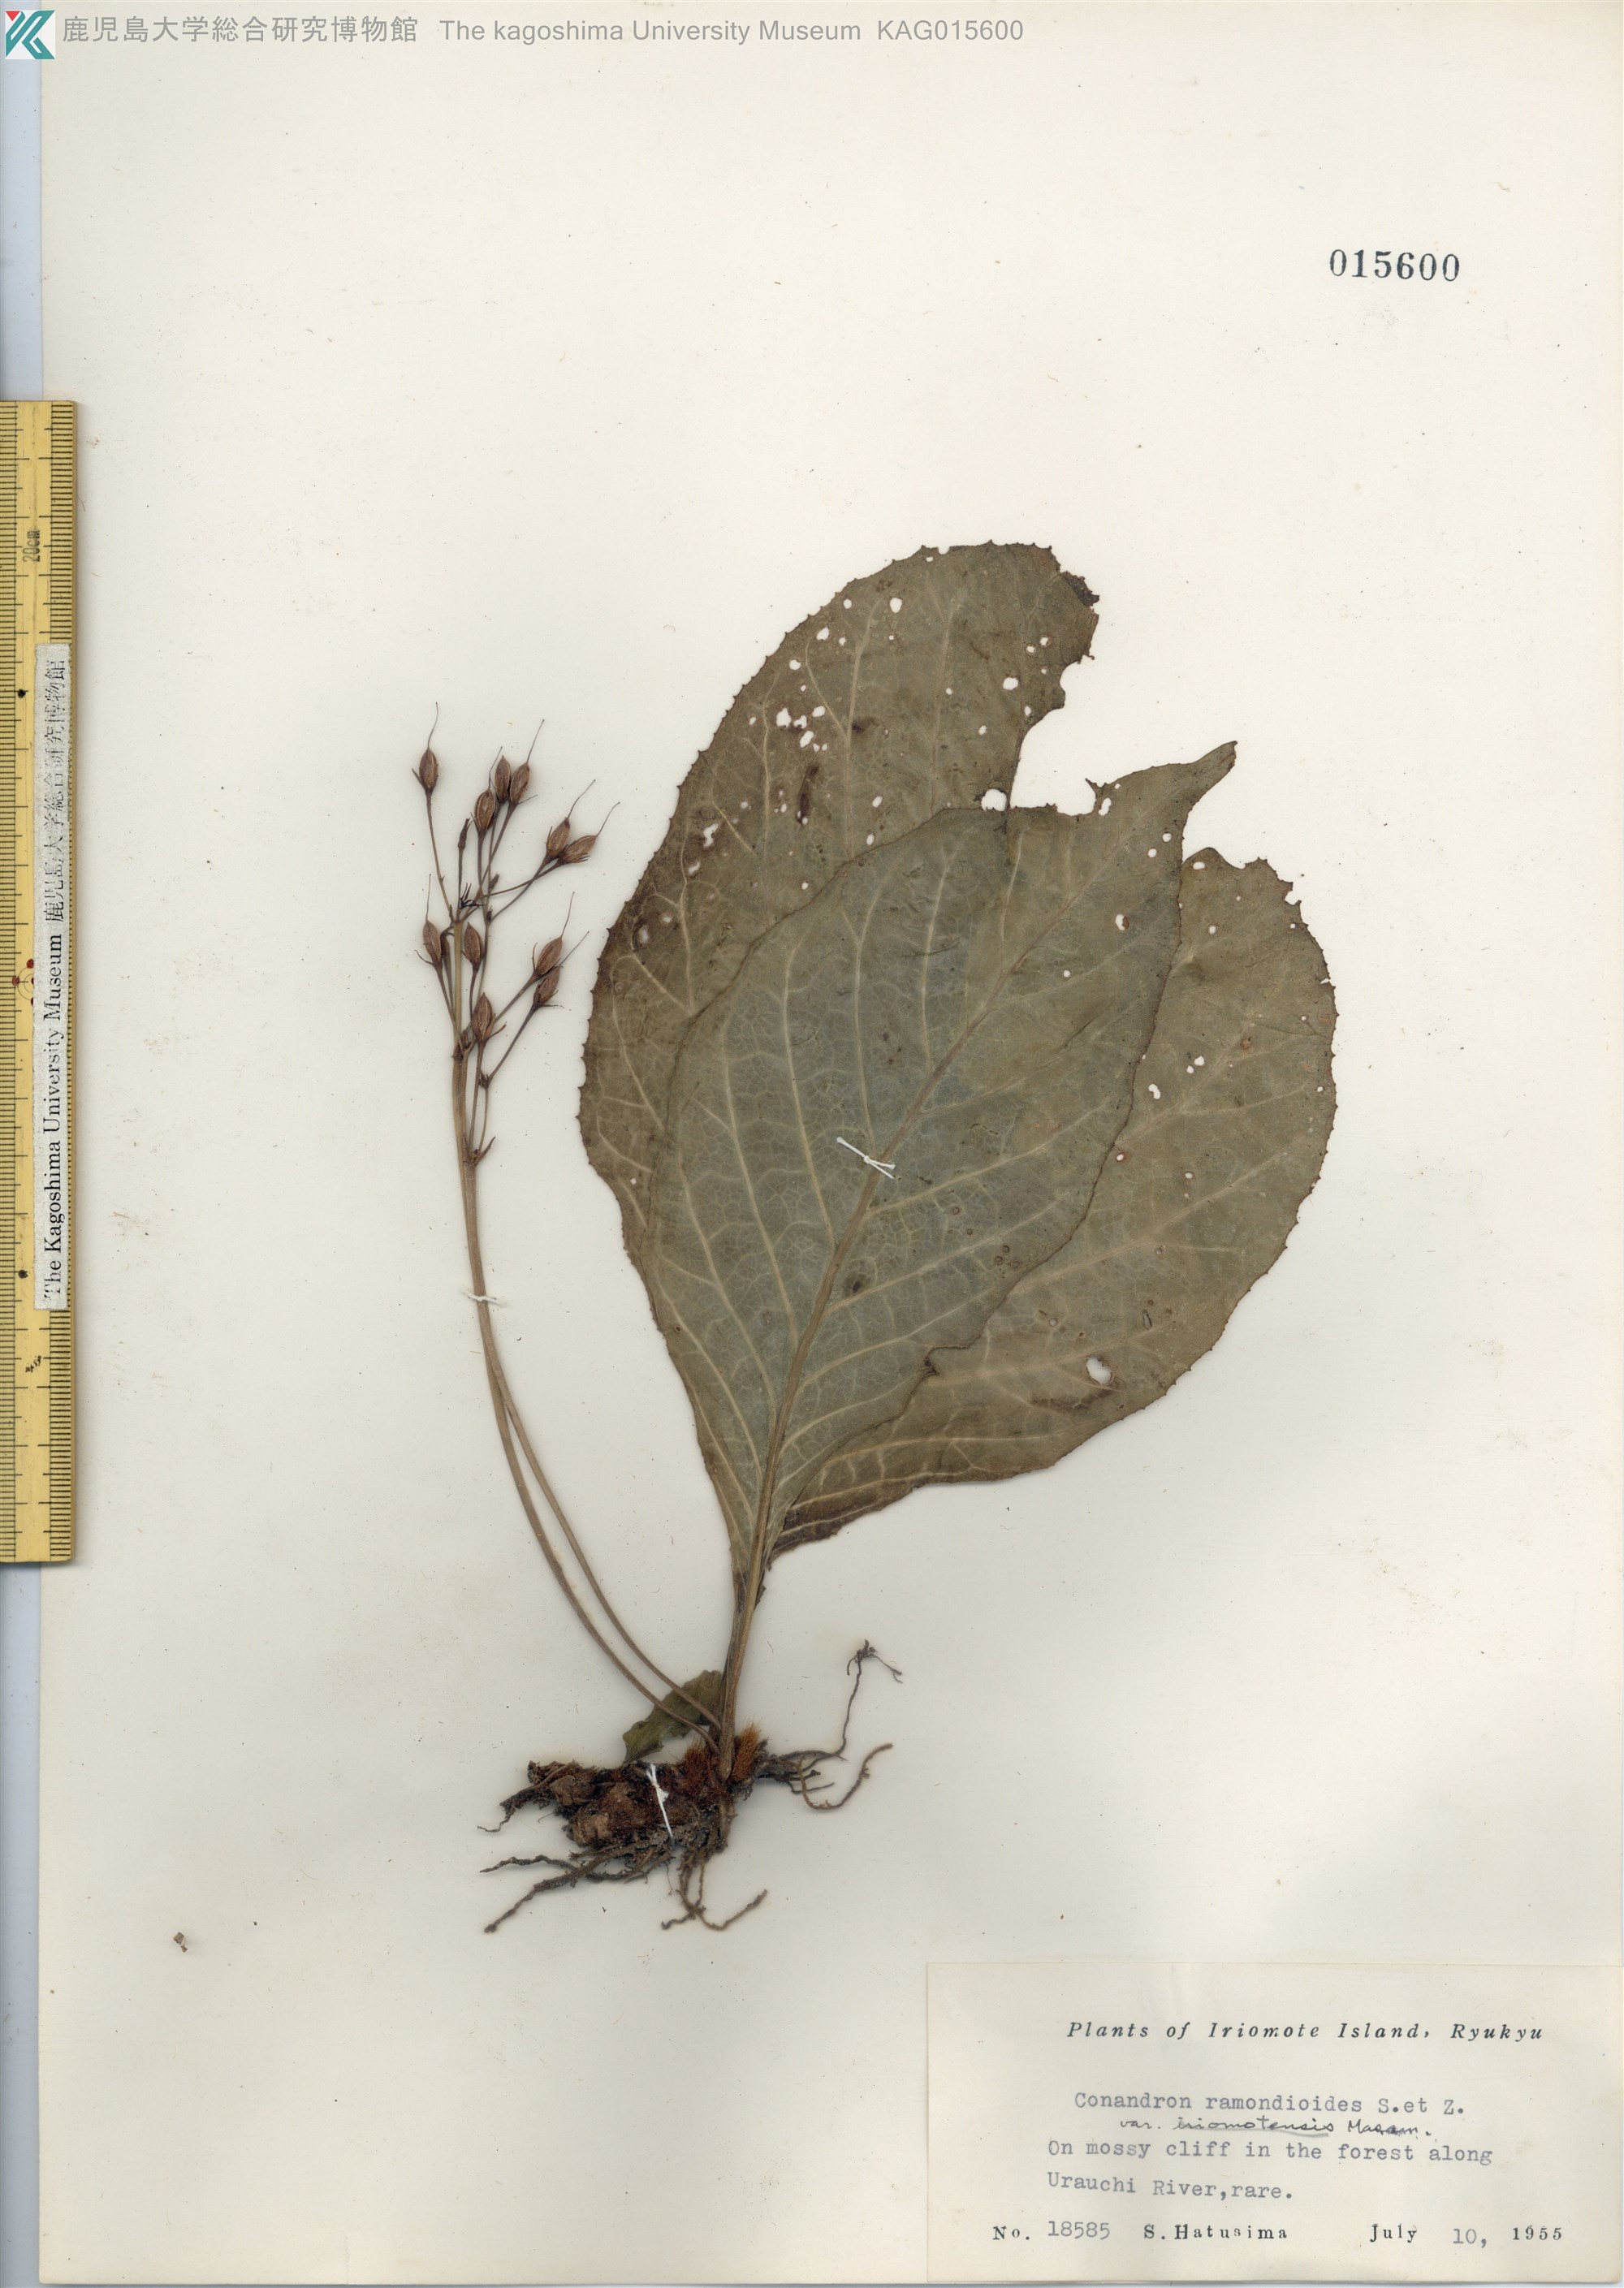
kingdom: Plantae
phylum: Tracheophyta
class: Magnoliopsida
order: Lamiales
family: Gesneriaceae
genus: Conandron
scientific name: Conandron ramondioides
